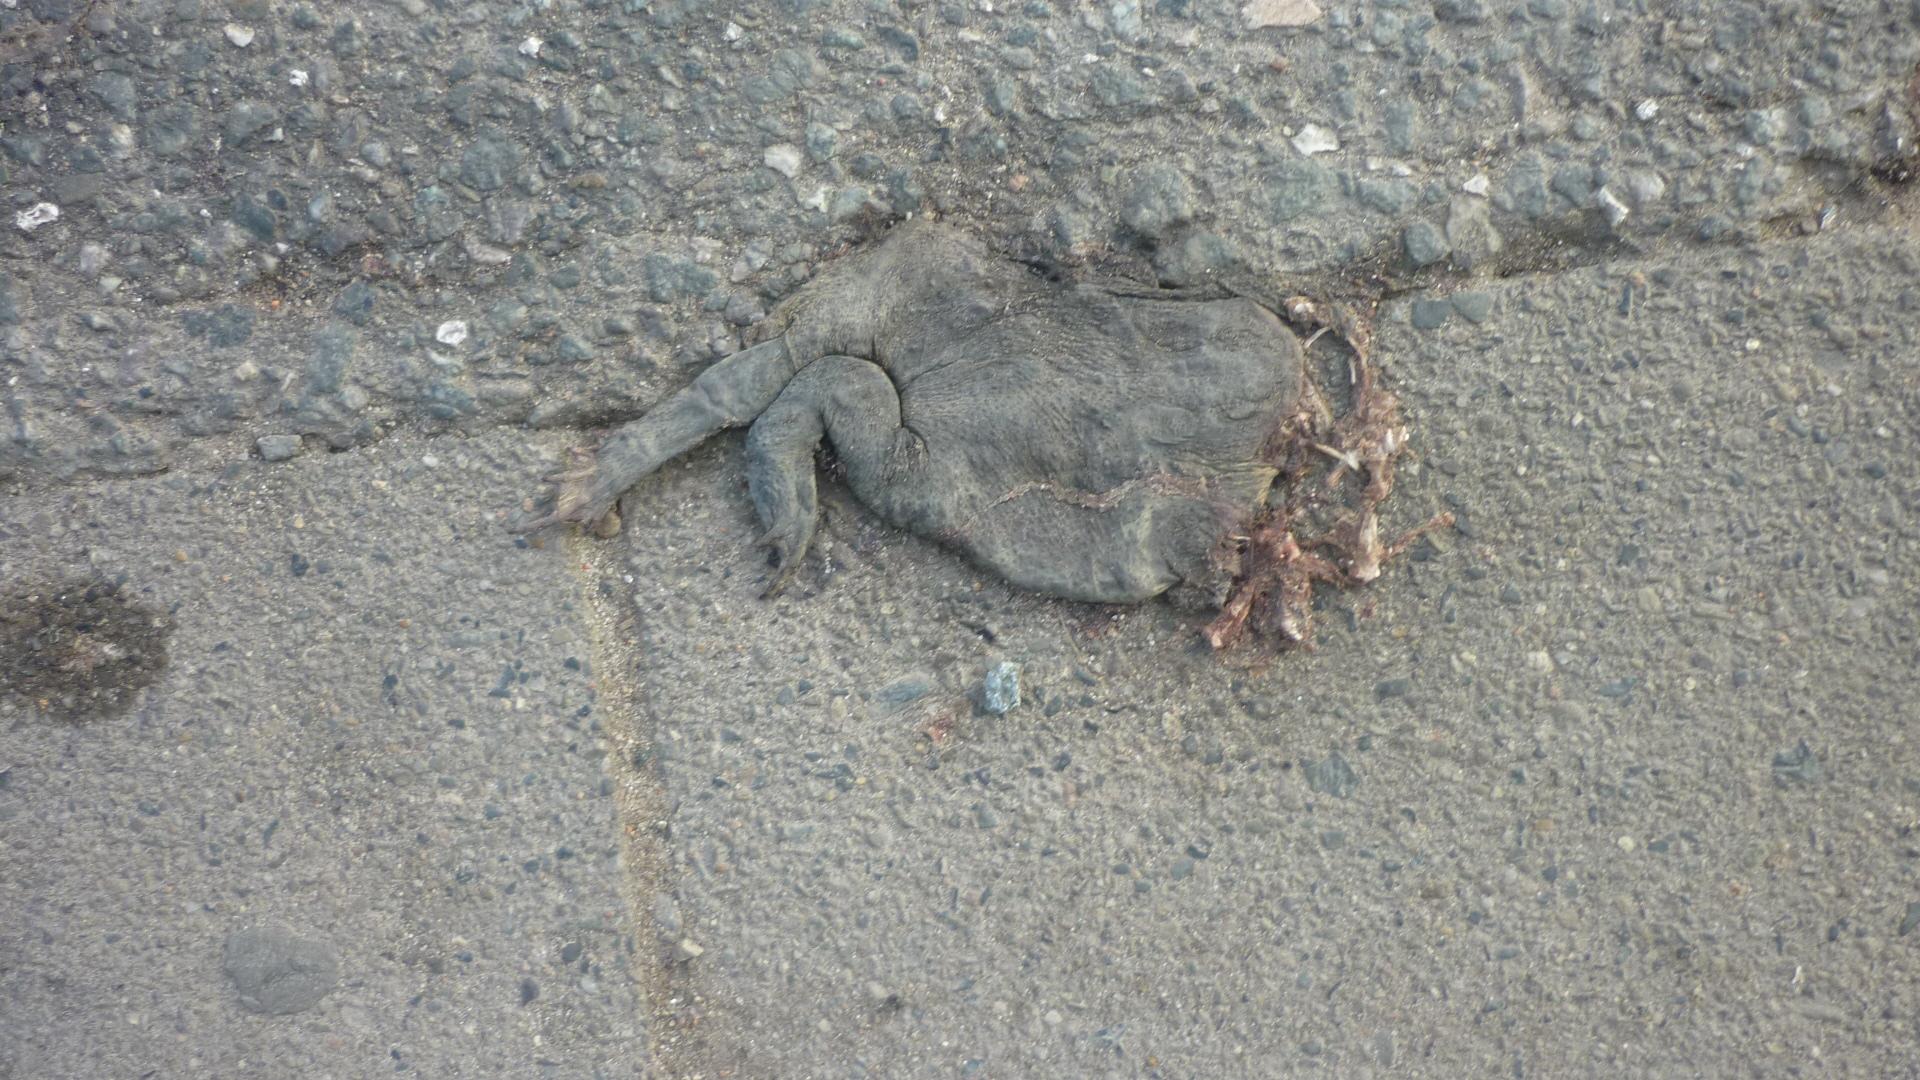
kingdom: Animalia
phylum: Chordata
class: Amphibia
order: Anura
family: Bufonidae
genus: Bufo
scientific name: Bufo bufo
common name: Common toad
